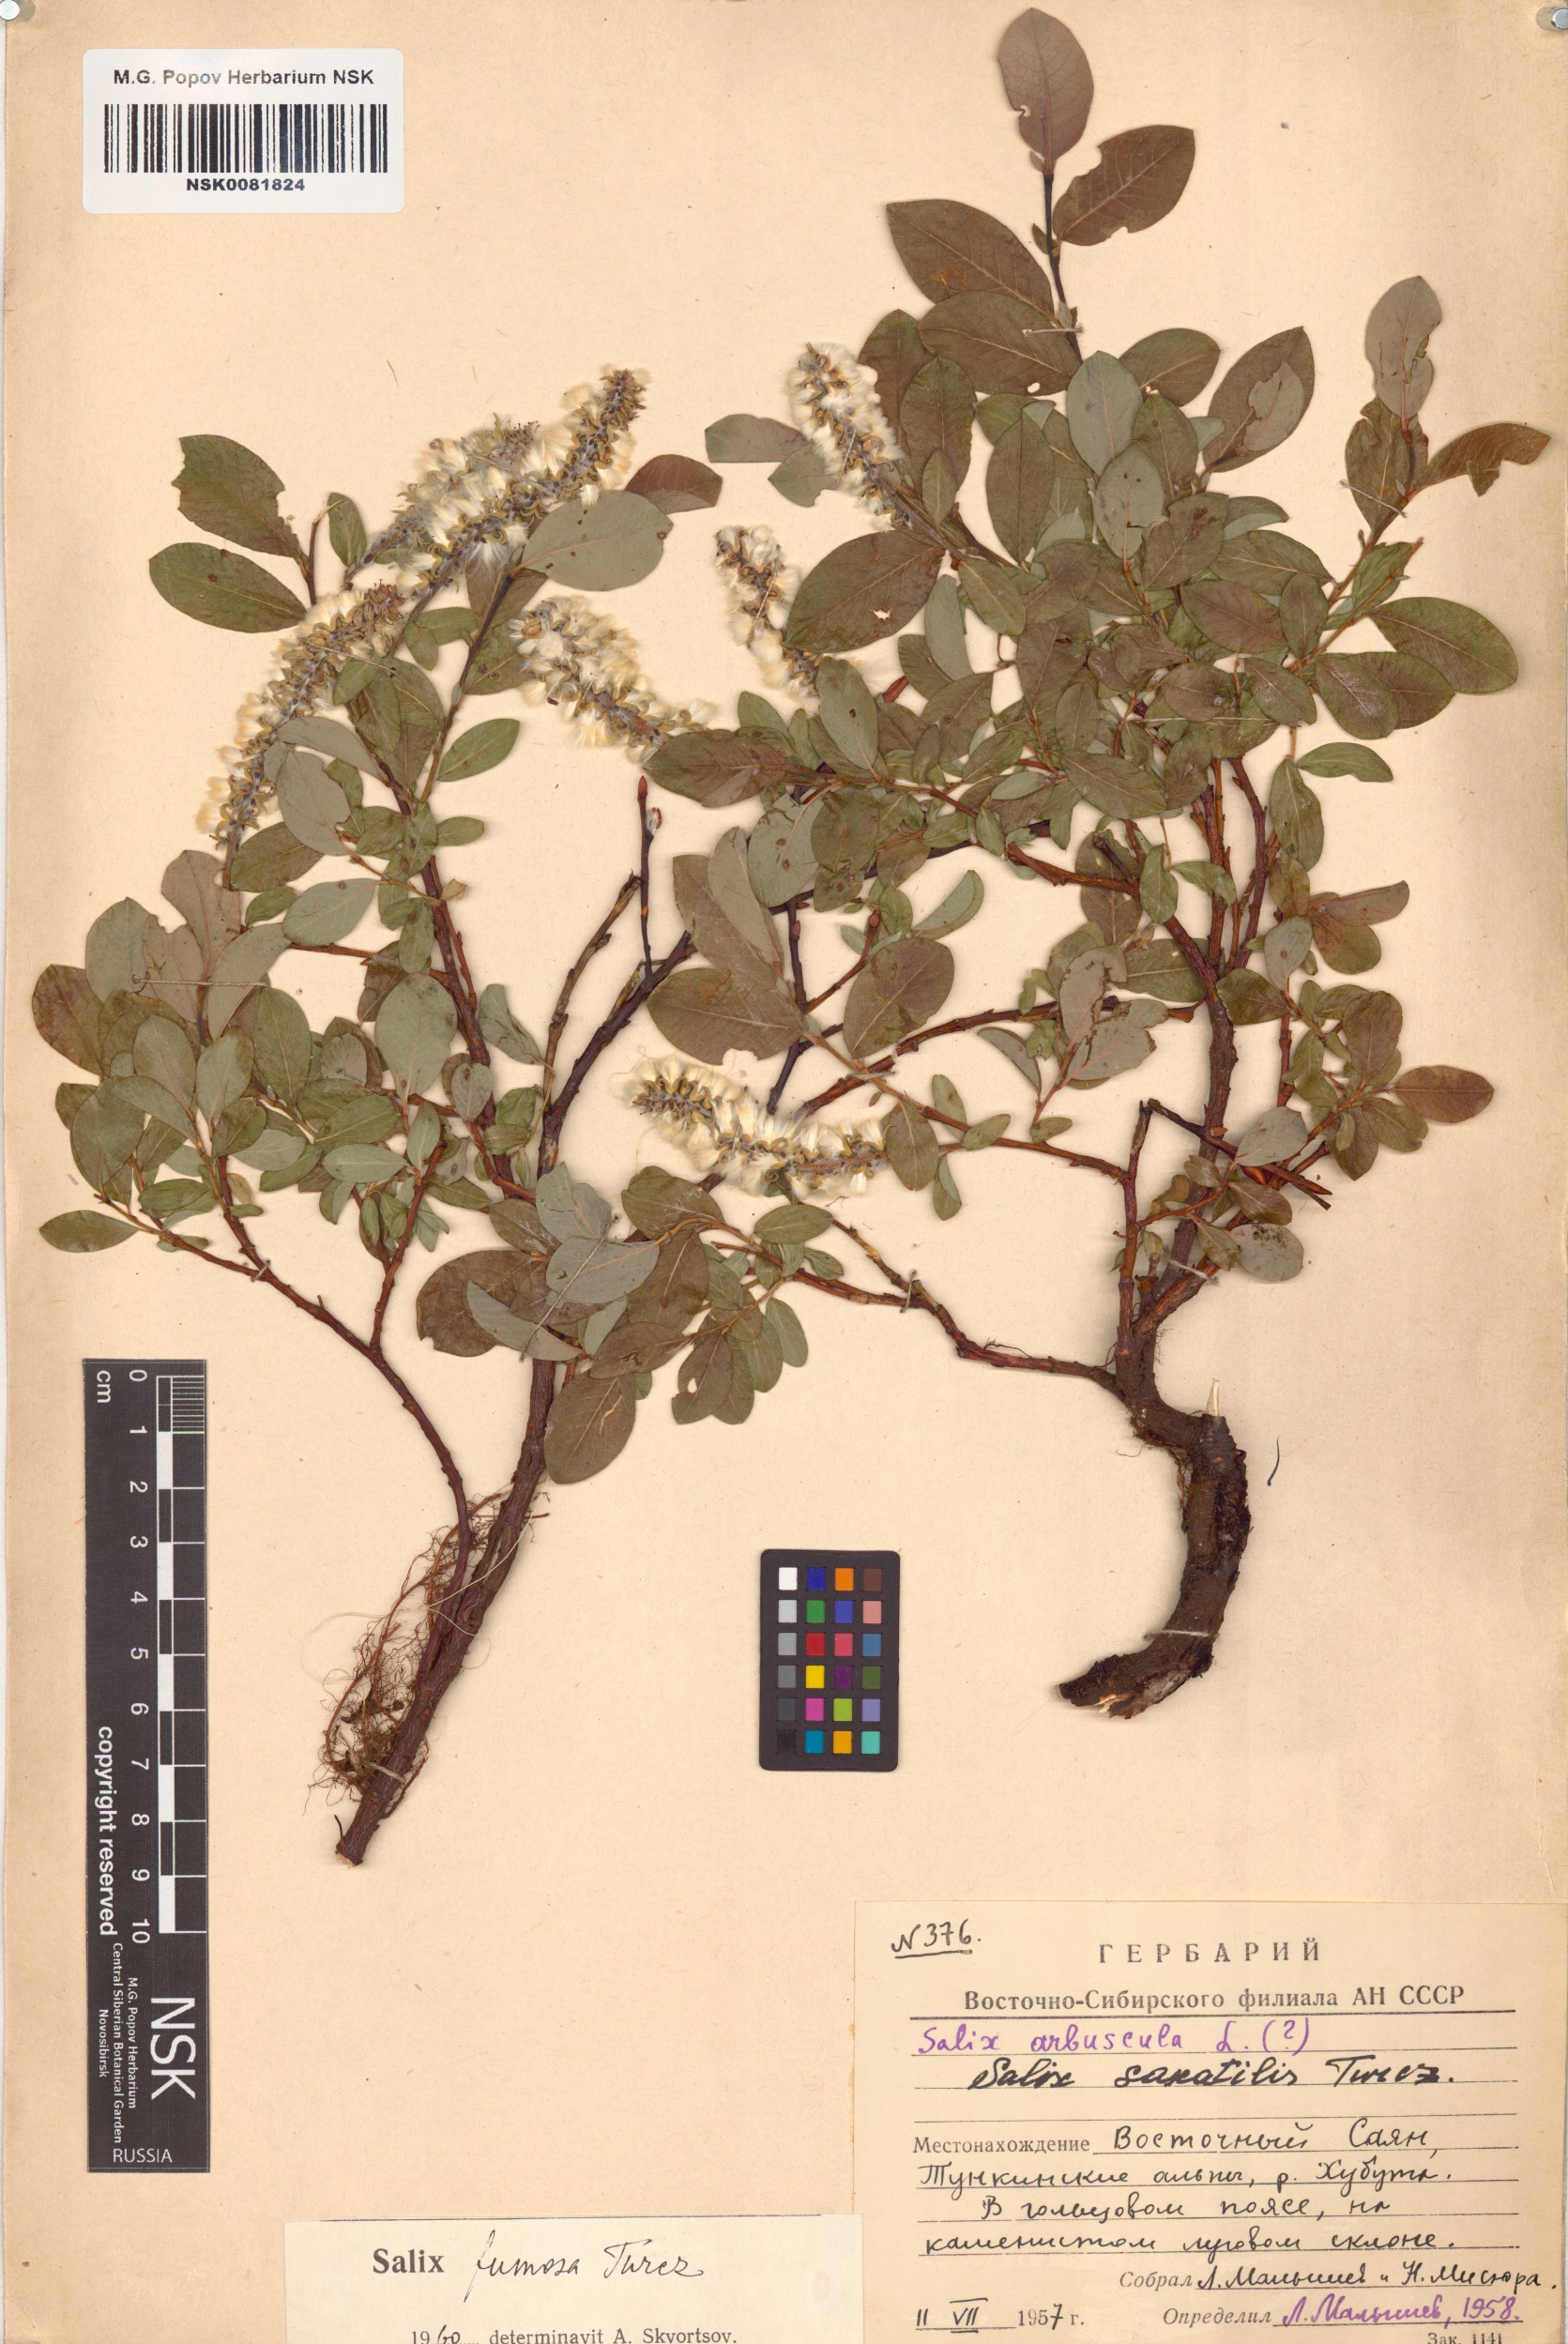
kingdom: Plantae
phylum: Tracheophyta
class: Magnoliopsida
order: Malpighiales
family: Salicaceae
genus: Salix
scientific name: Salix saxatilis
